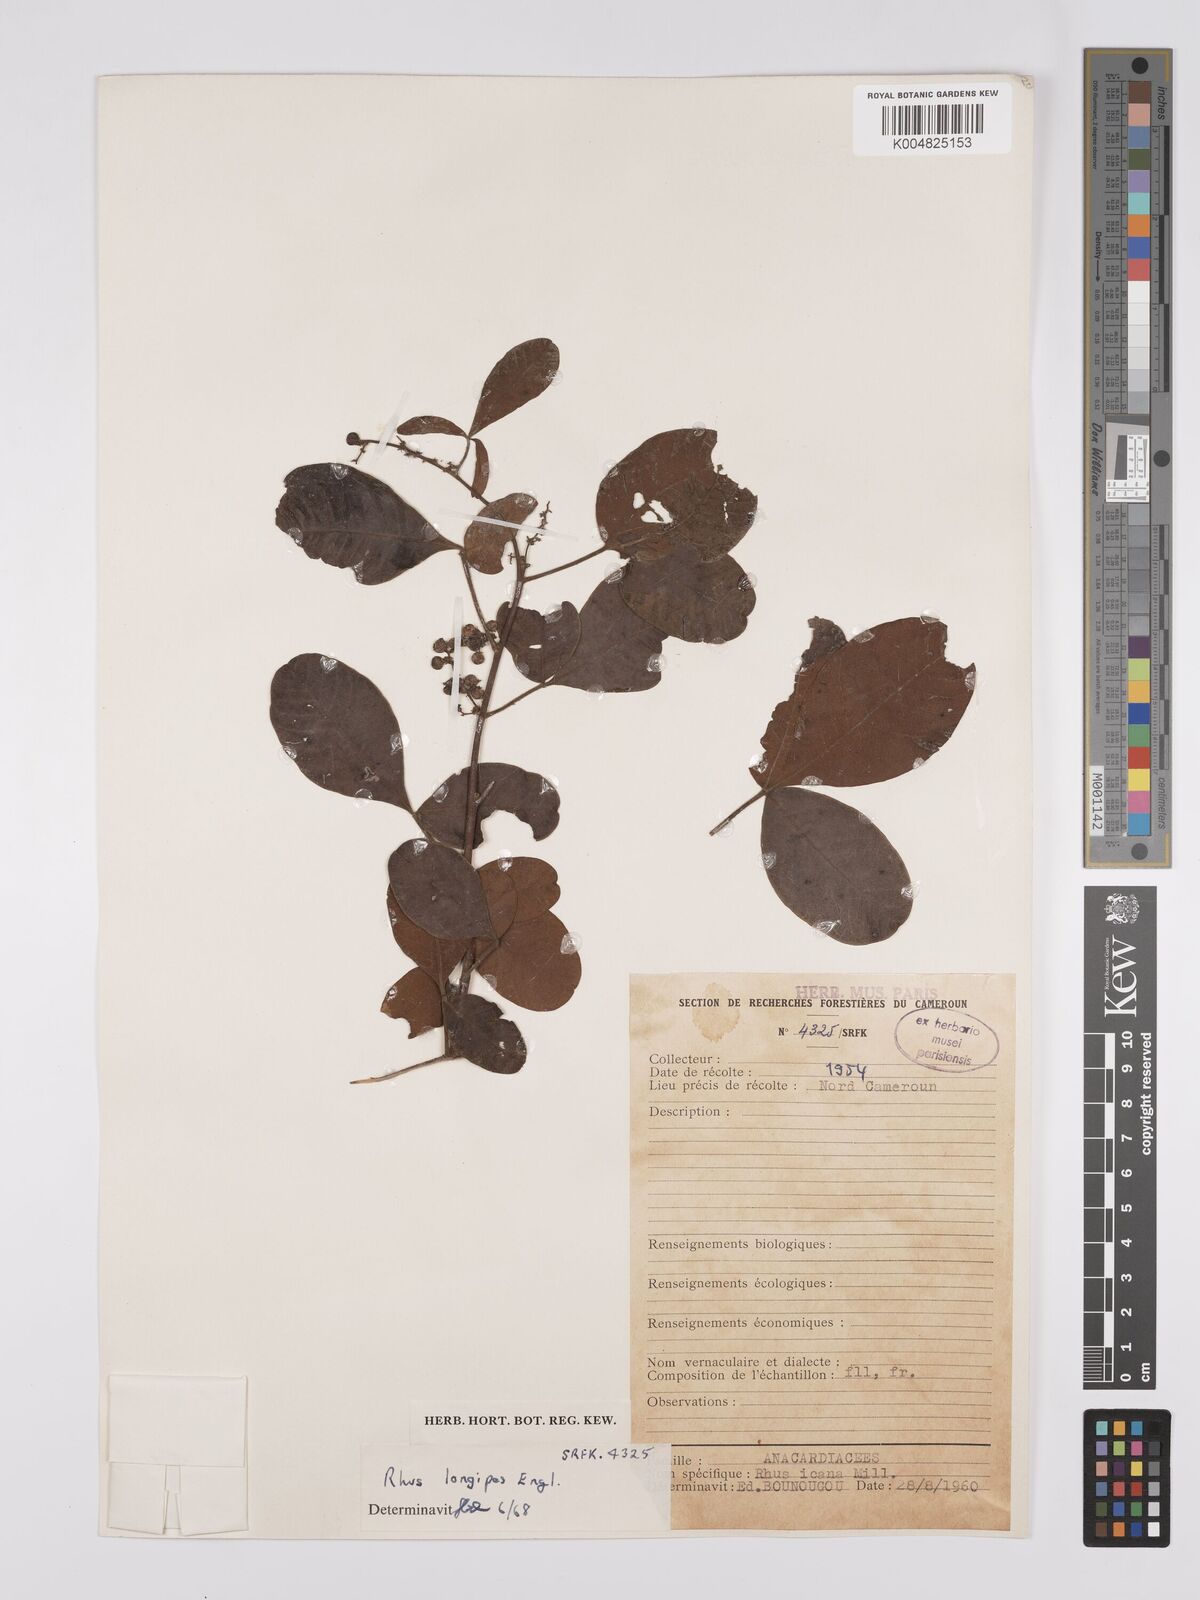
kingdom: Plantae
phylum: Tracheophyta
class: Magnoliopsida
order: Sapindales
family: Anacardiaceae
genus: Searsia
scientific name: Searsia longipes
